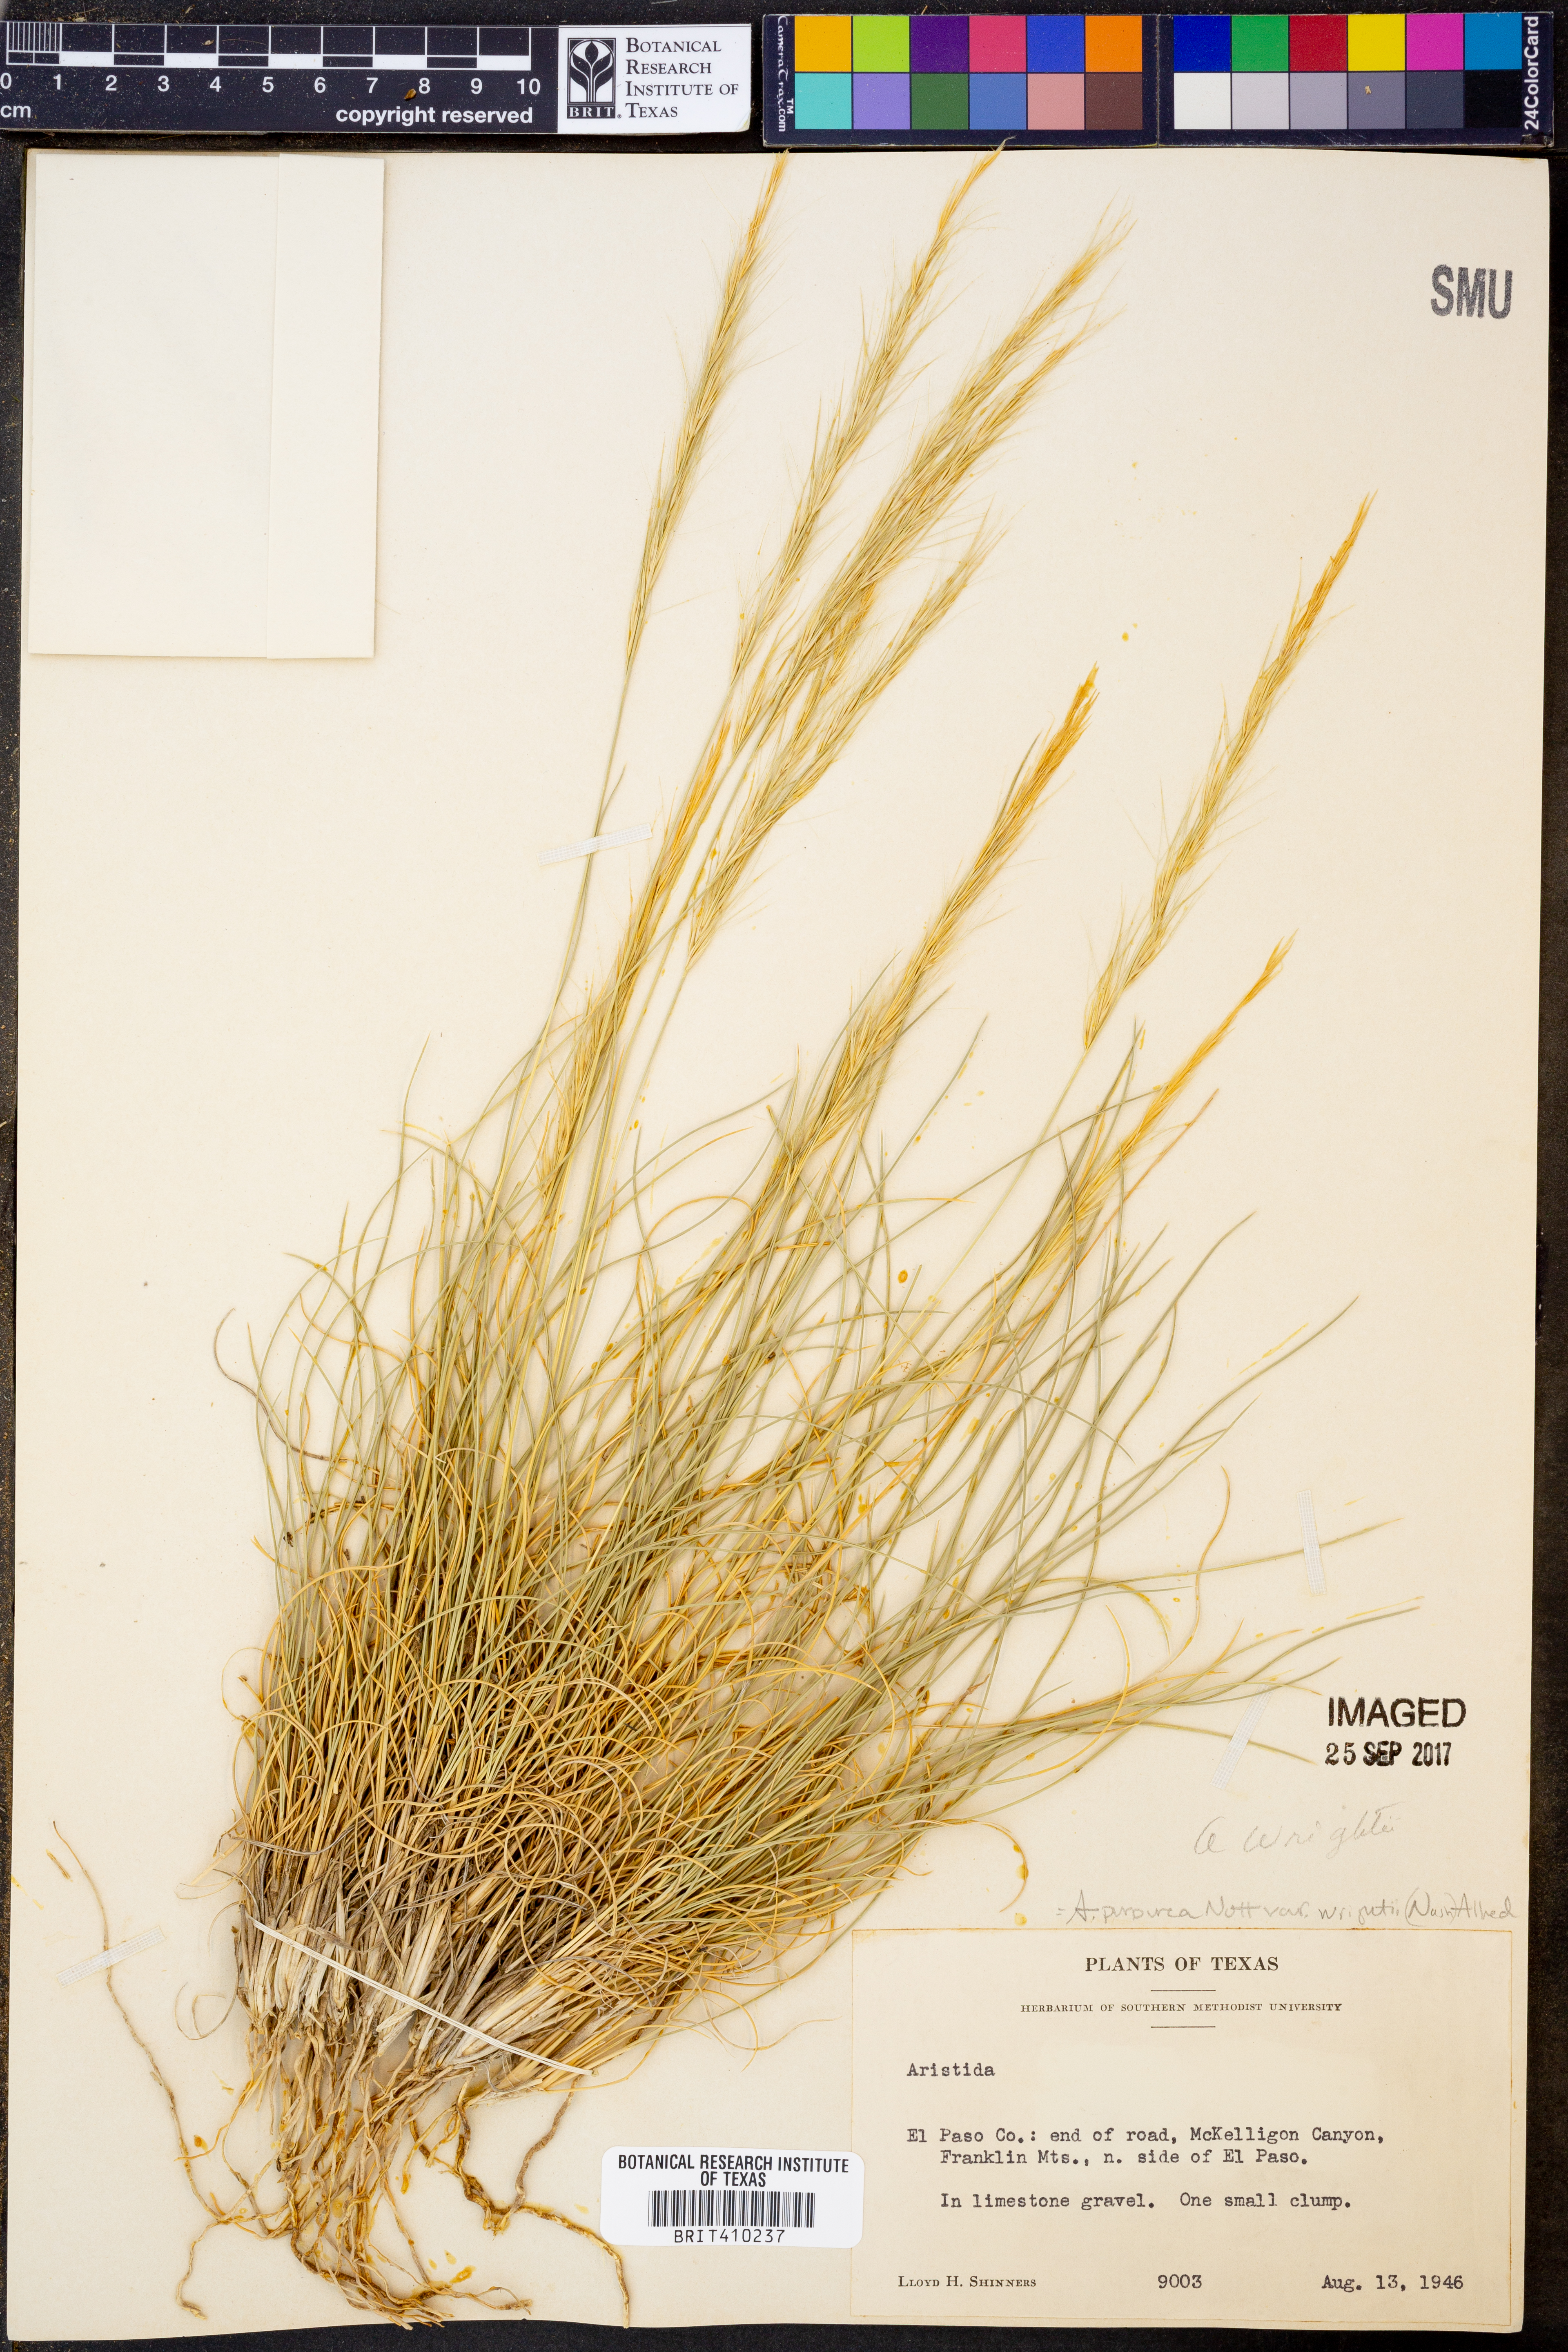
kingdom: Plantae
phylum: Tracheophyta
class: Liliopsida
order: Poales
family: Poaceae
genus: Aristida
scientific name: Aristida wrightii
